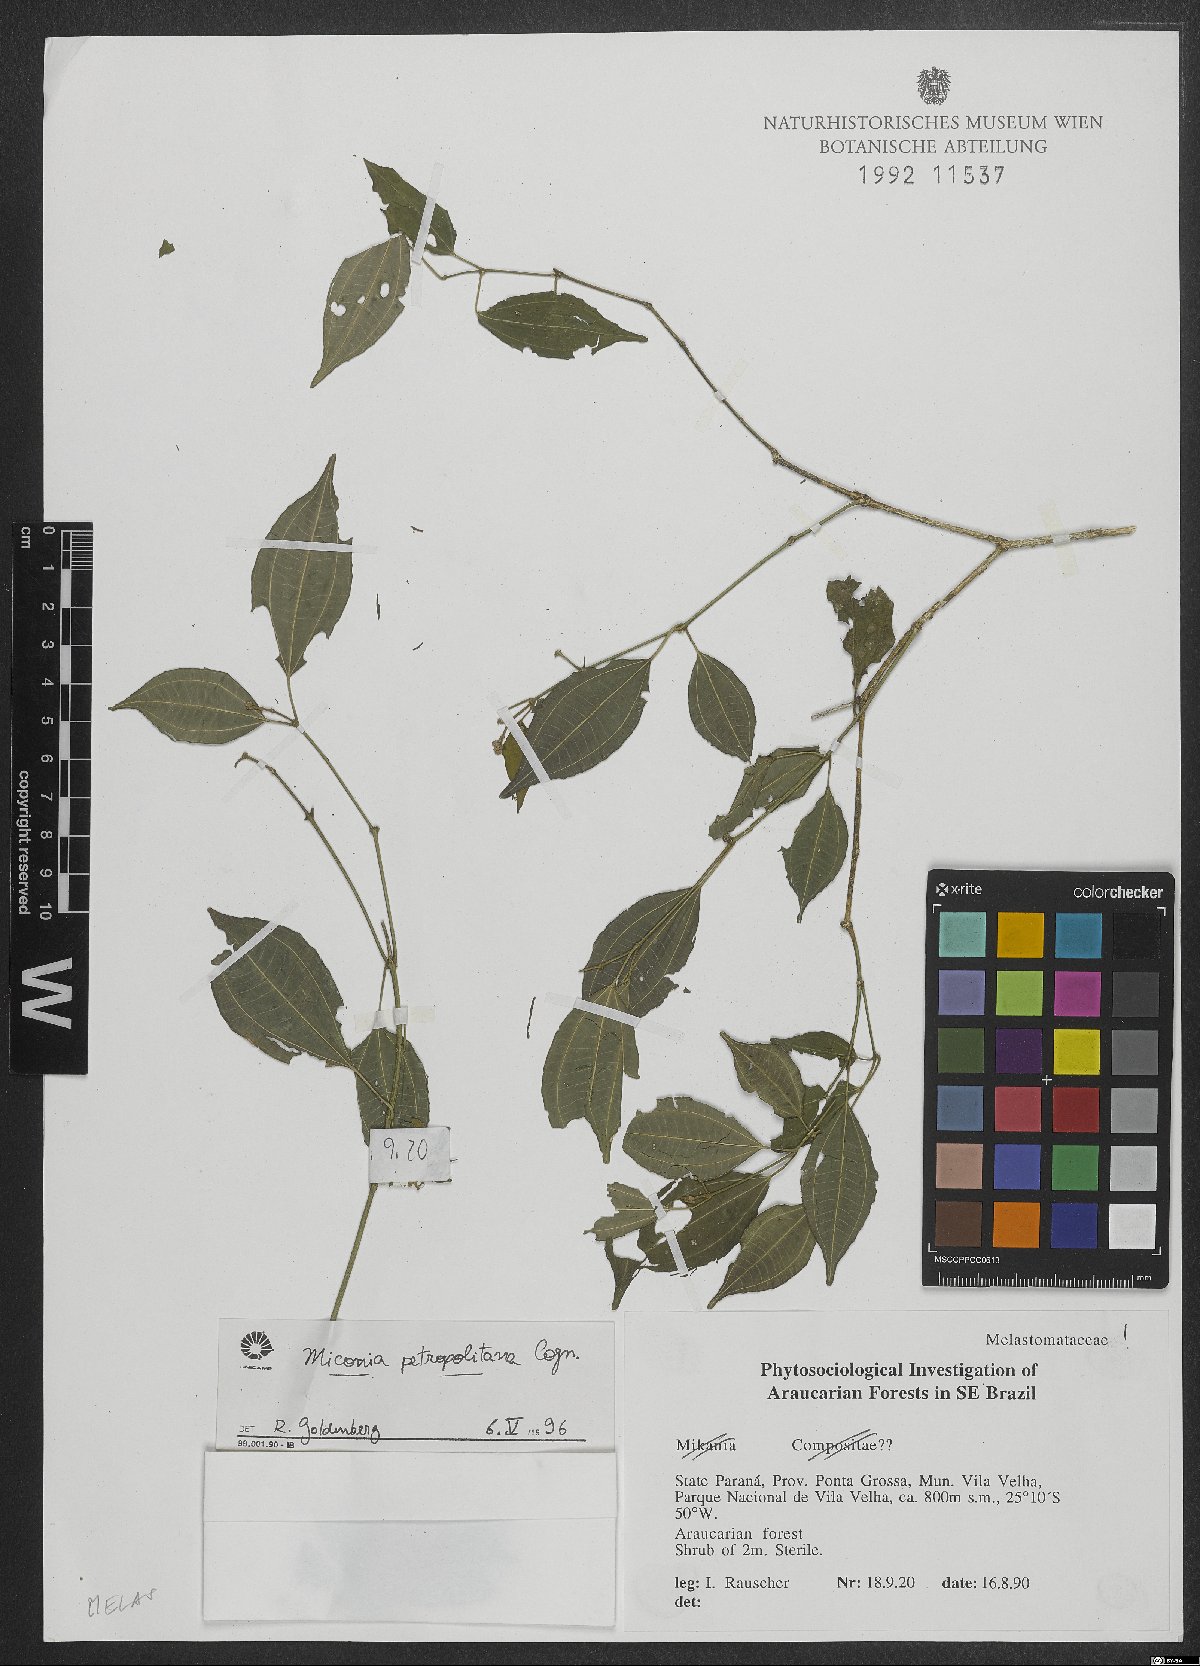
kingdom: Plantae
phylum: Tracheophyta
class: Magnoliopsida
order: Myrtales
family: Melastomataceae
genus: Miconia
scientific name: Miconia petropolitana
